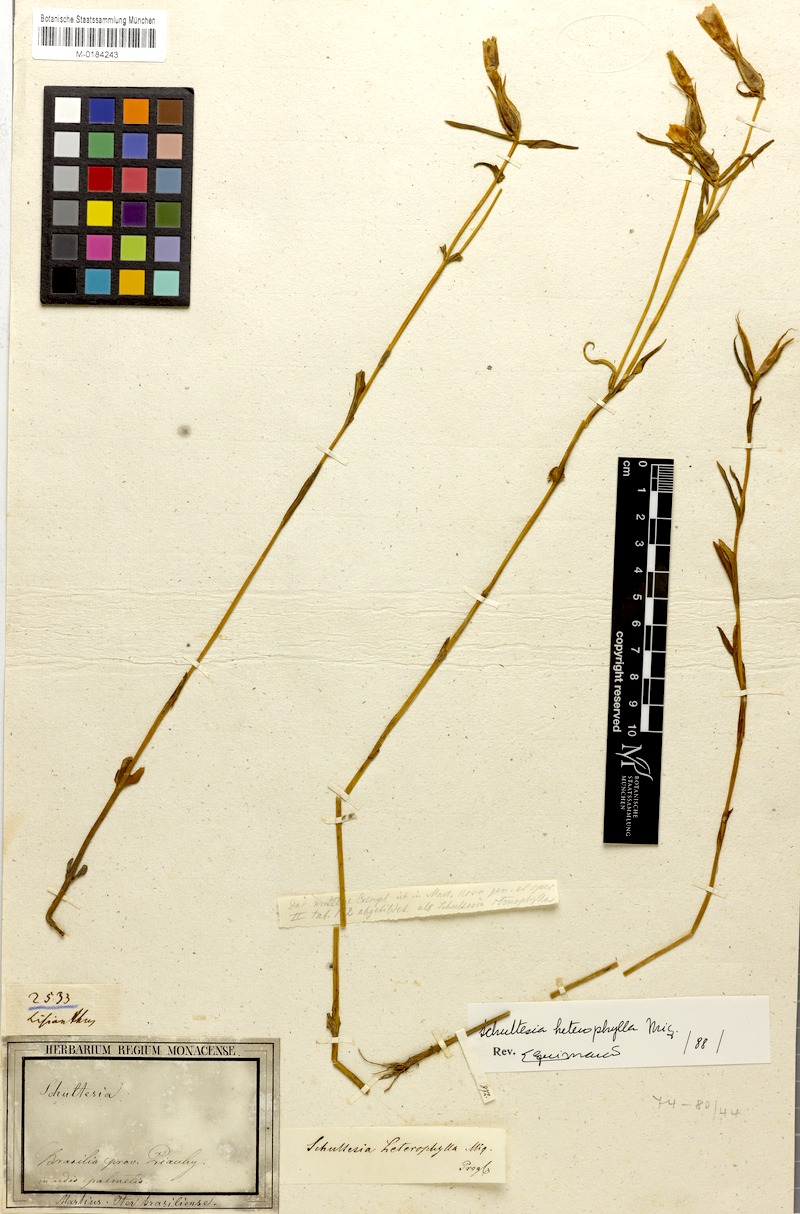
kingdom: Plantae
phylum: Tracheophyta
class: Magnoliopsida
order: Gentianales
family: Gentianaceae
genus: Schultesia
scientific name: Schultesia brachyptera
